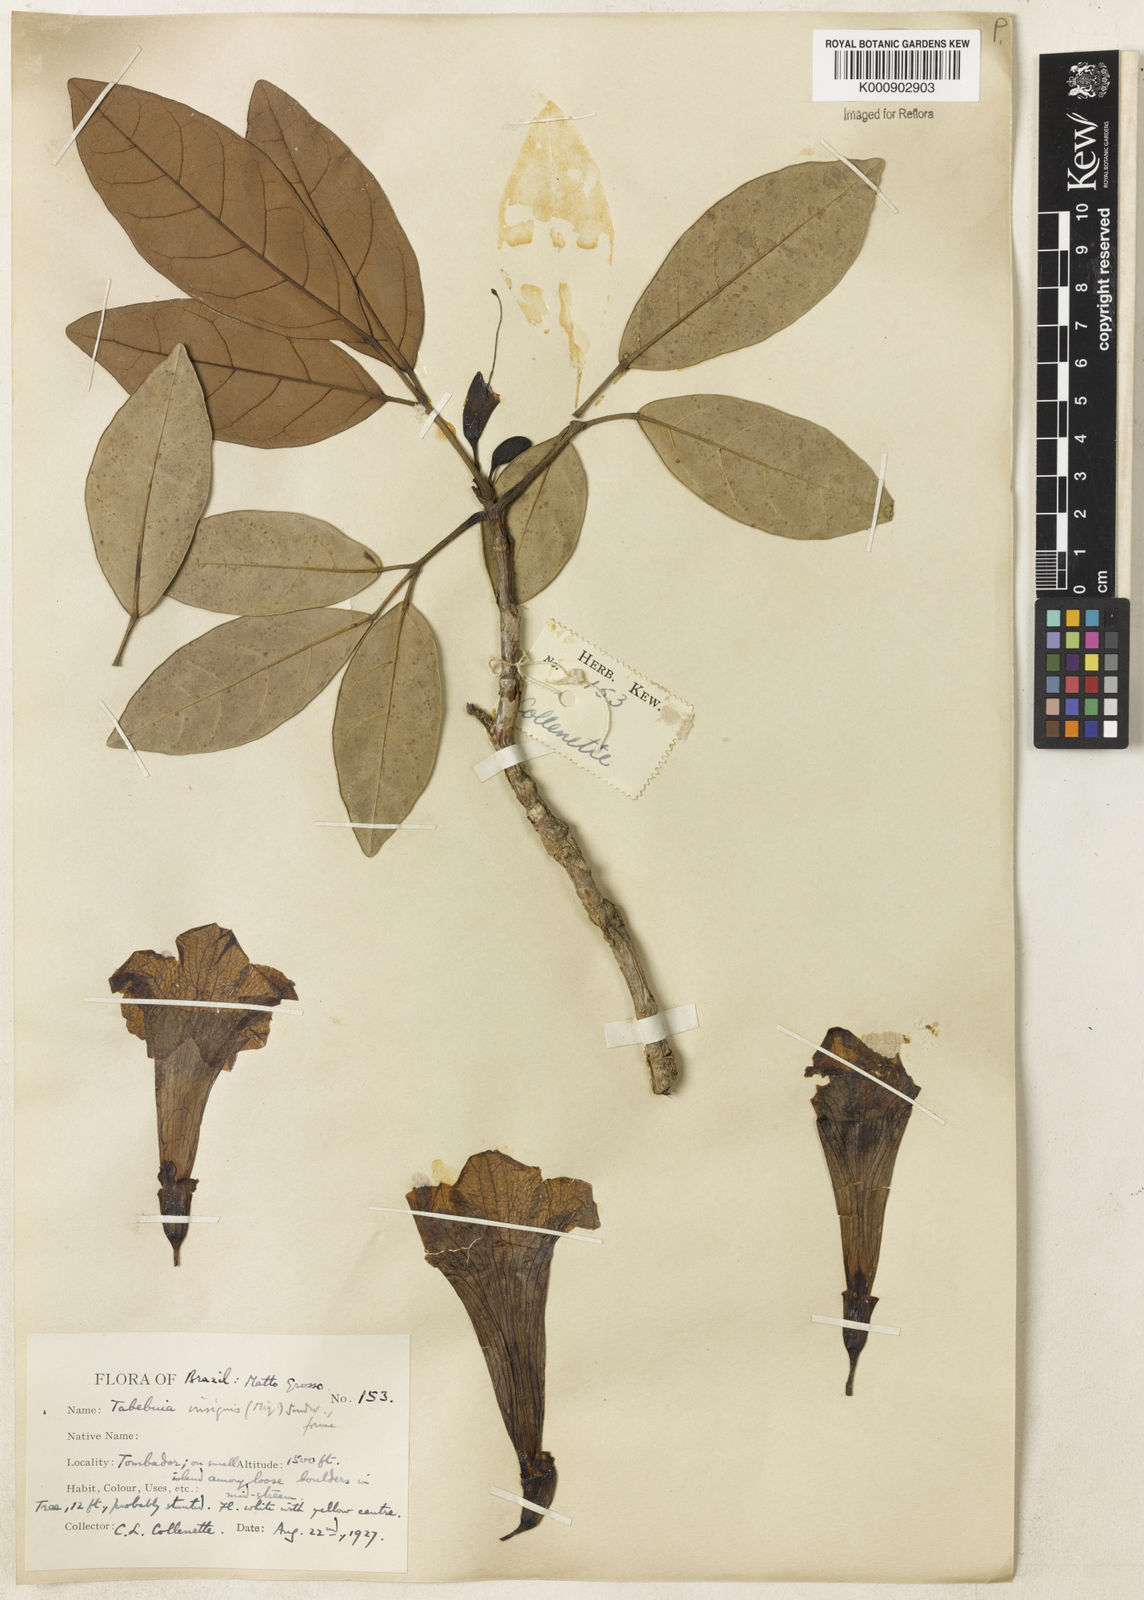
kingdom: Plantae
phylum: Tracheophyta
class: Magnoliopsida
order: Lamiales
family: Bignoniaceae
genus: Tabebuia
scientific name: Tabebuia
